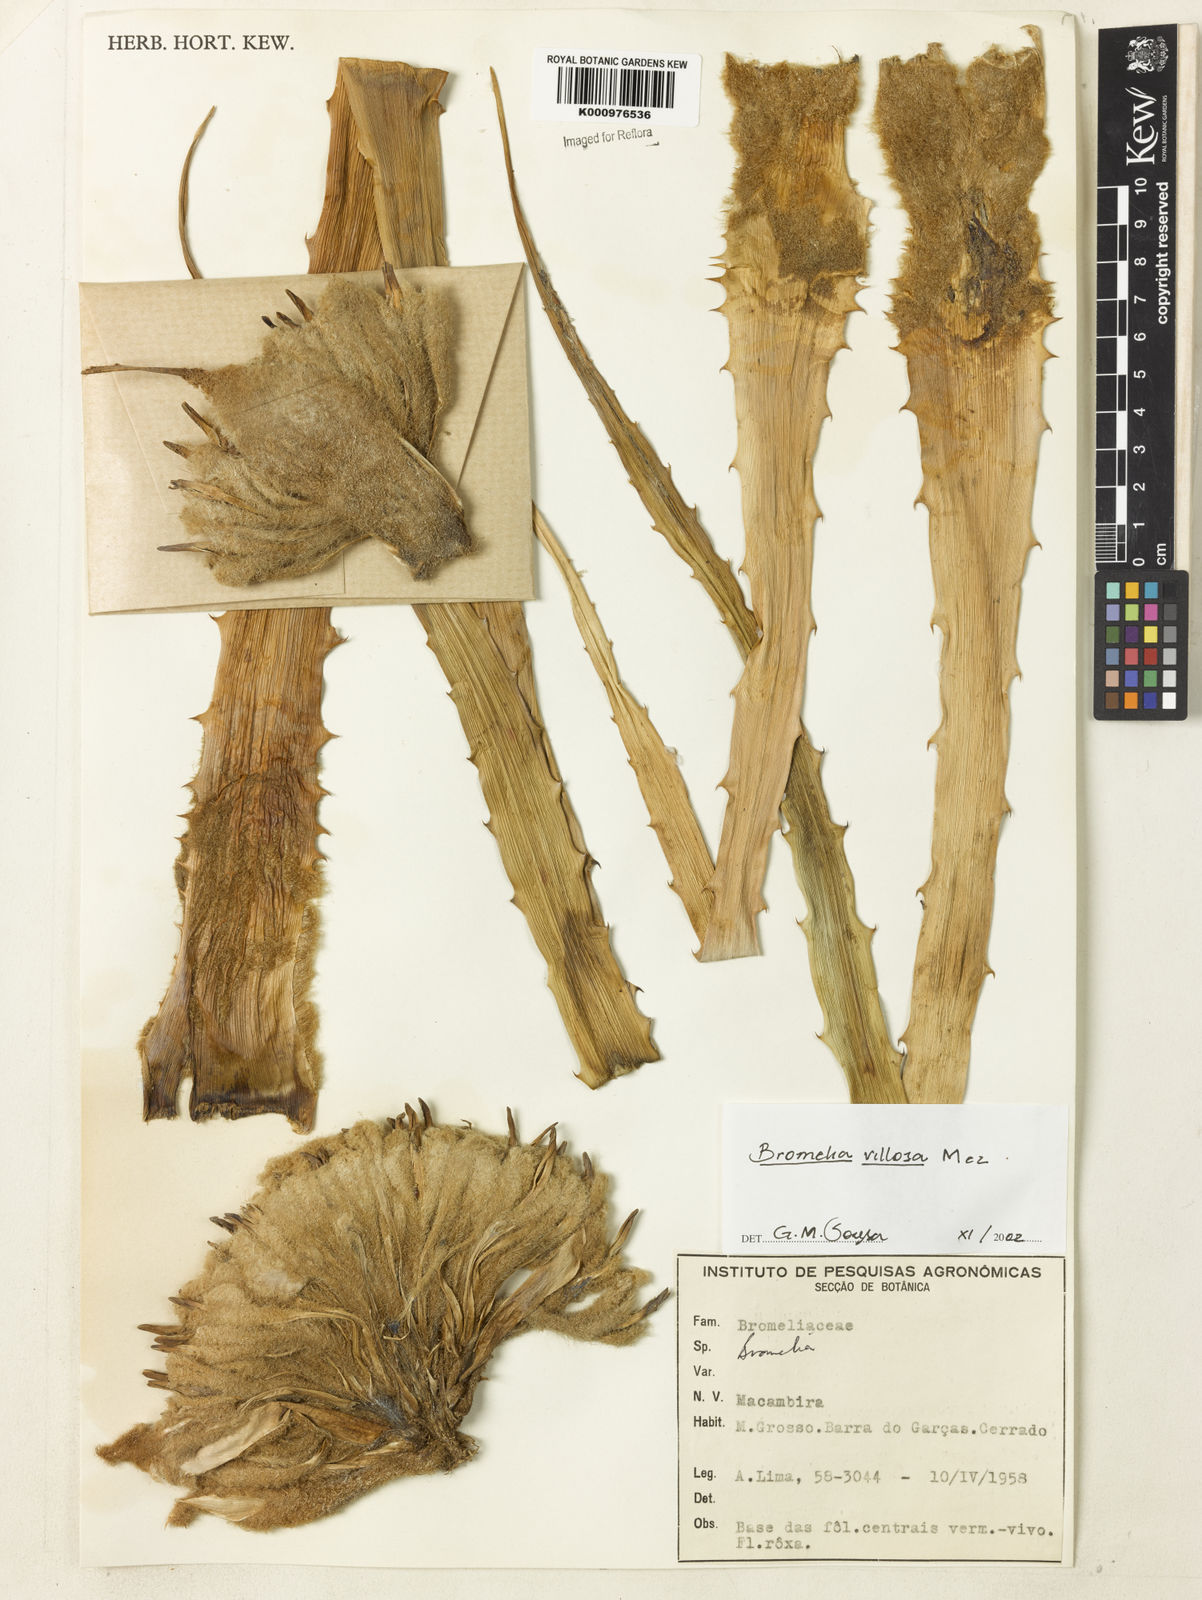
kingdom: Plantae
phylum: Tracheophyta
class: Liliopsida
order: Poales
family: Bromeliaceae
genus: Bromelia
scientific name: Bromelia villosa
